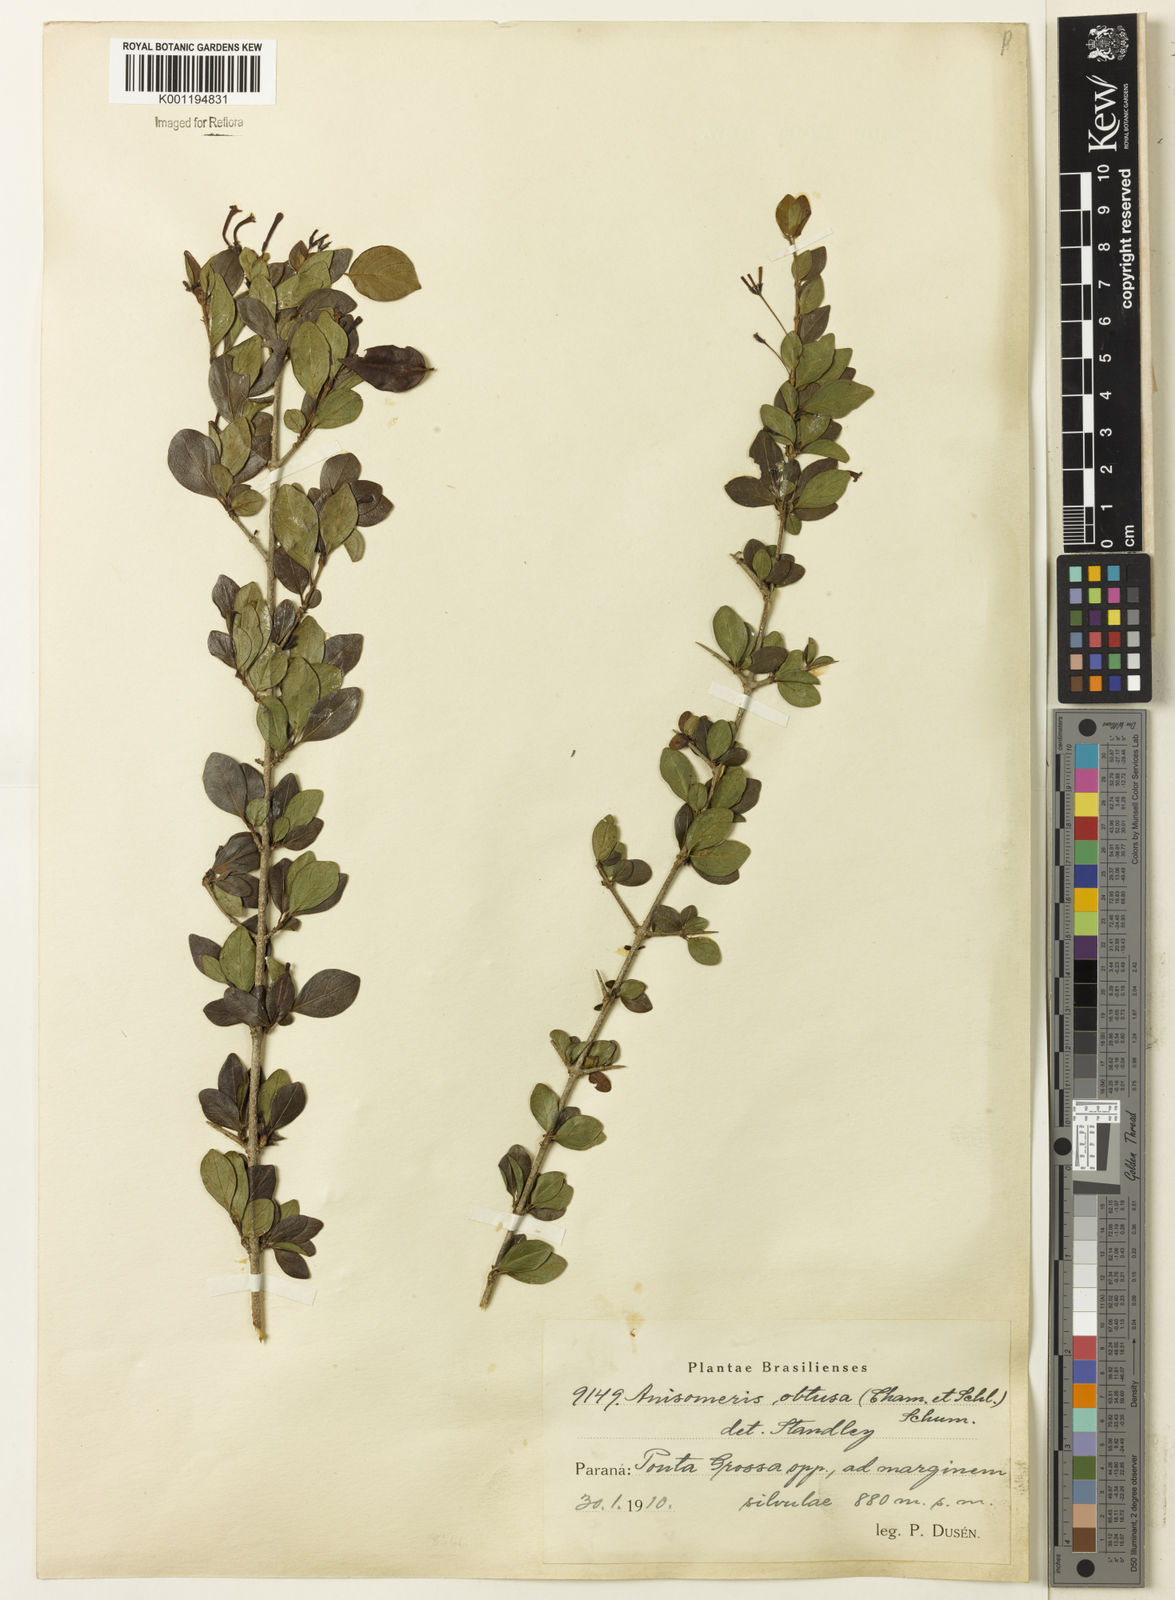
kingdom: Plantae
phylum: Tracheophyta
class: Magnoliopsida
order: Gentianales
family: Rubiaceae
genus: Chomelia
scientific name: Chomelia obtusa
